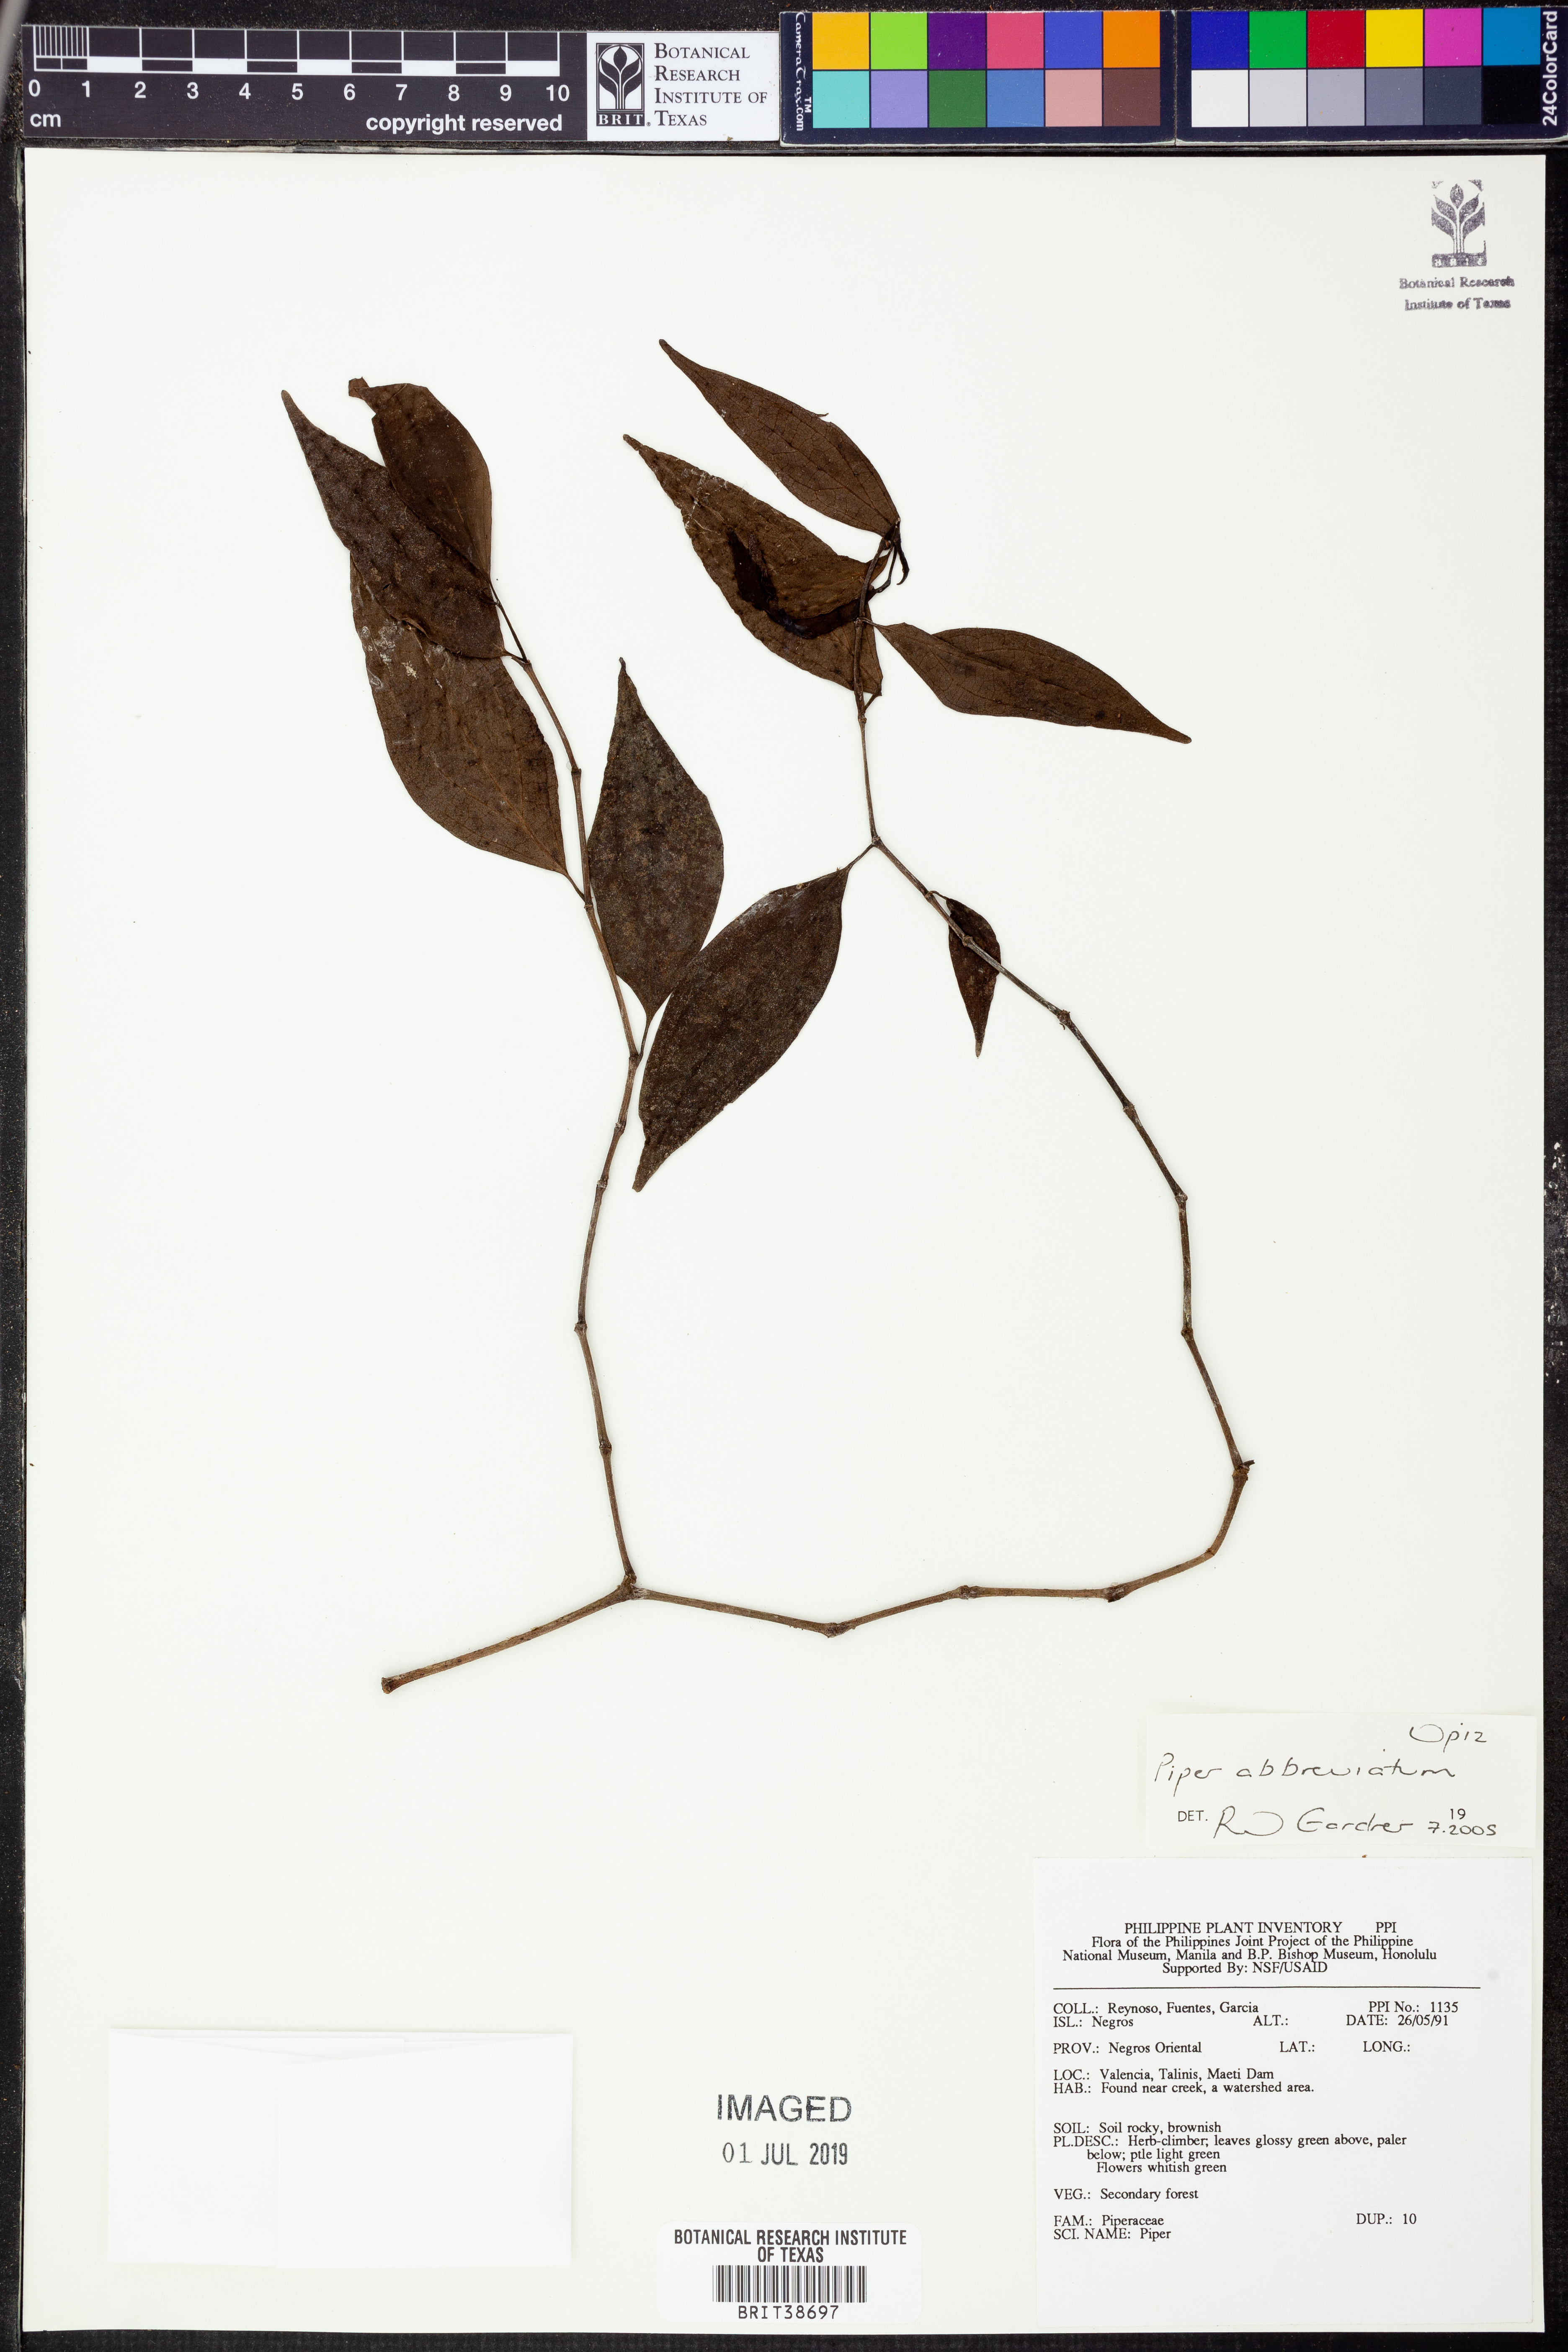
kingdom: Plantae
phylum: Tracheophyta
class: Magnoliopsida
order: Piperales
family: Piperaceae
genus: Piper
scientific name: Piper abbreviatum
